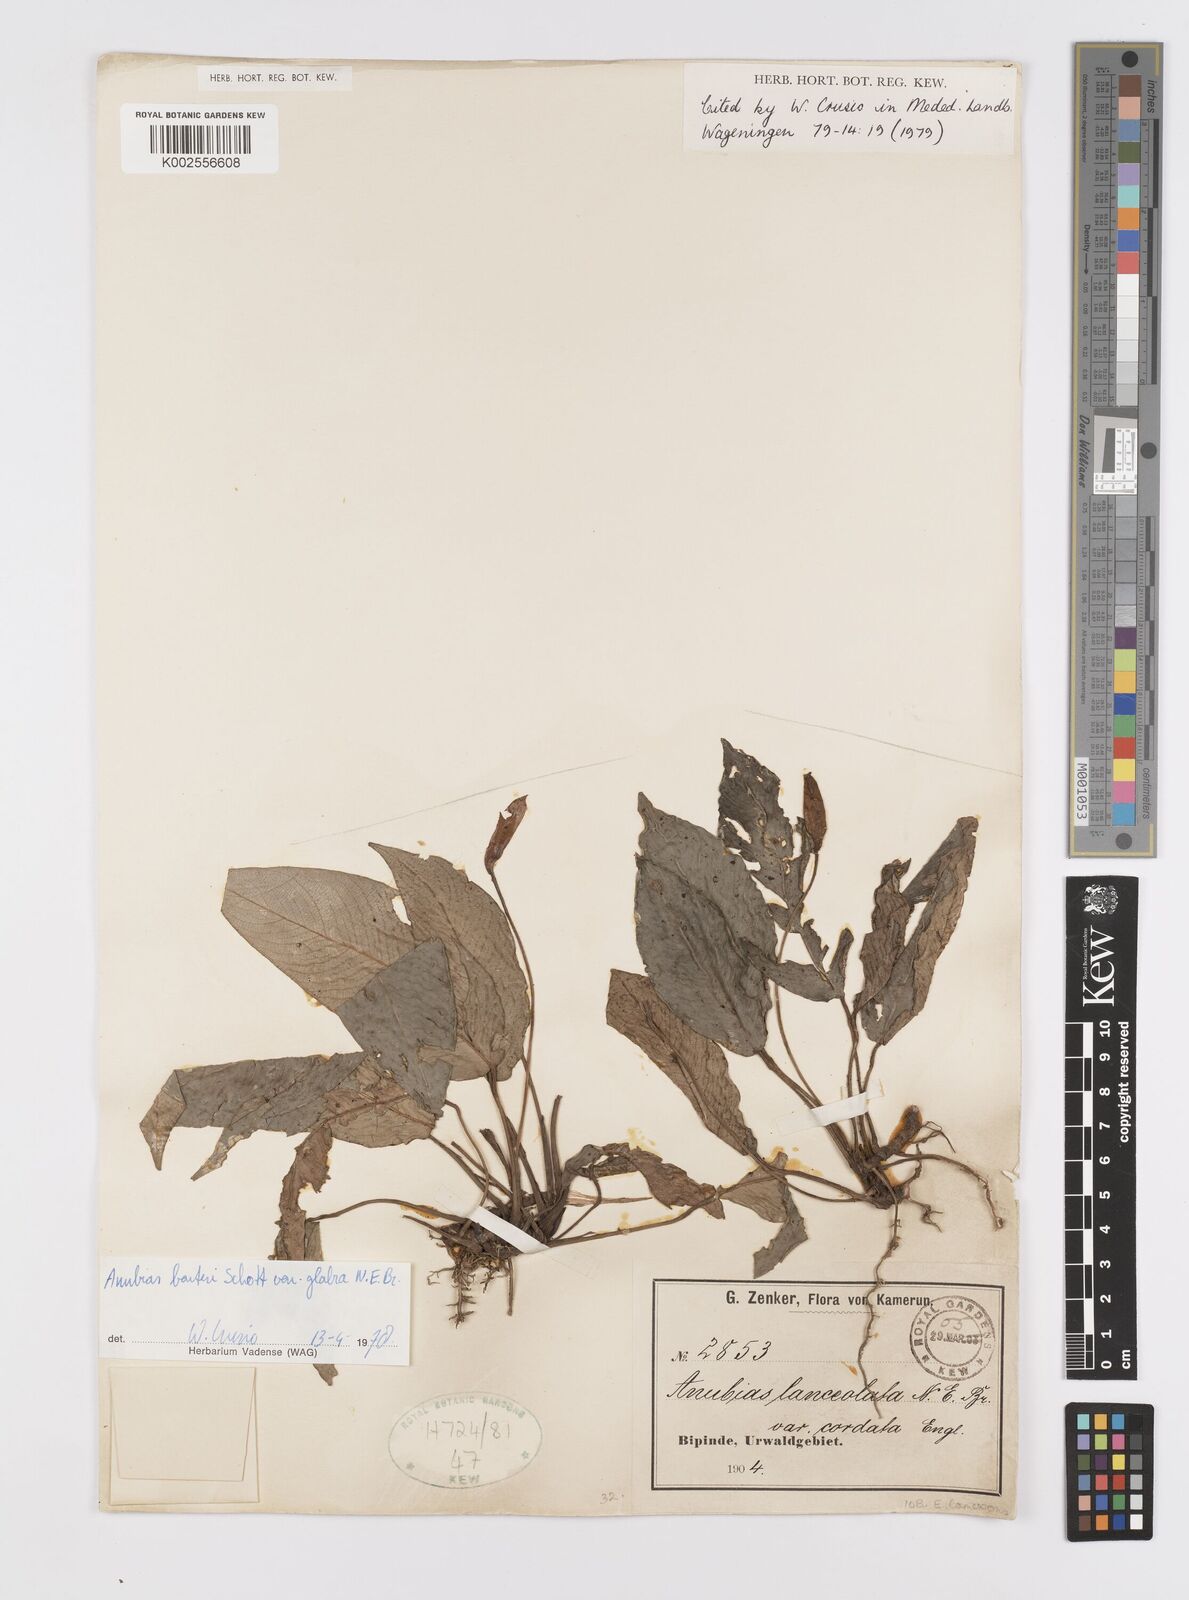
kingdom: Plantae
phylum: Tracheophyta
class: Liliopsida
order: Alismatales
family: Araceae
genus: Anubias
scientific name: Anubias barteri
